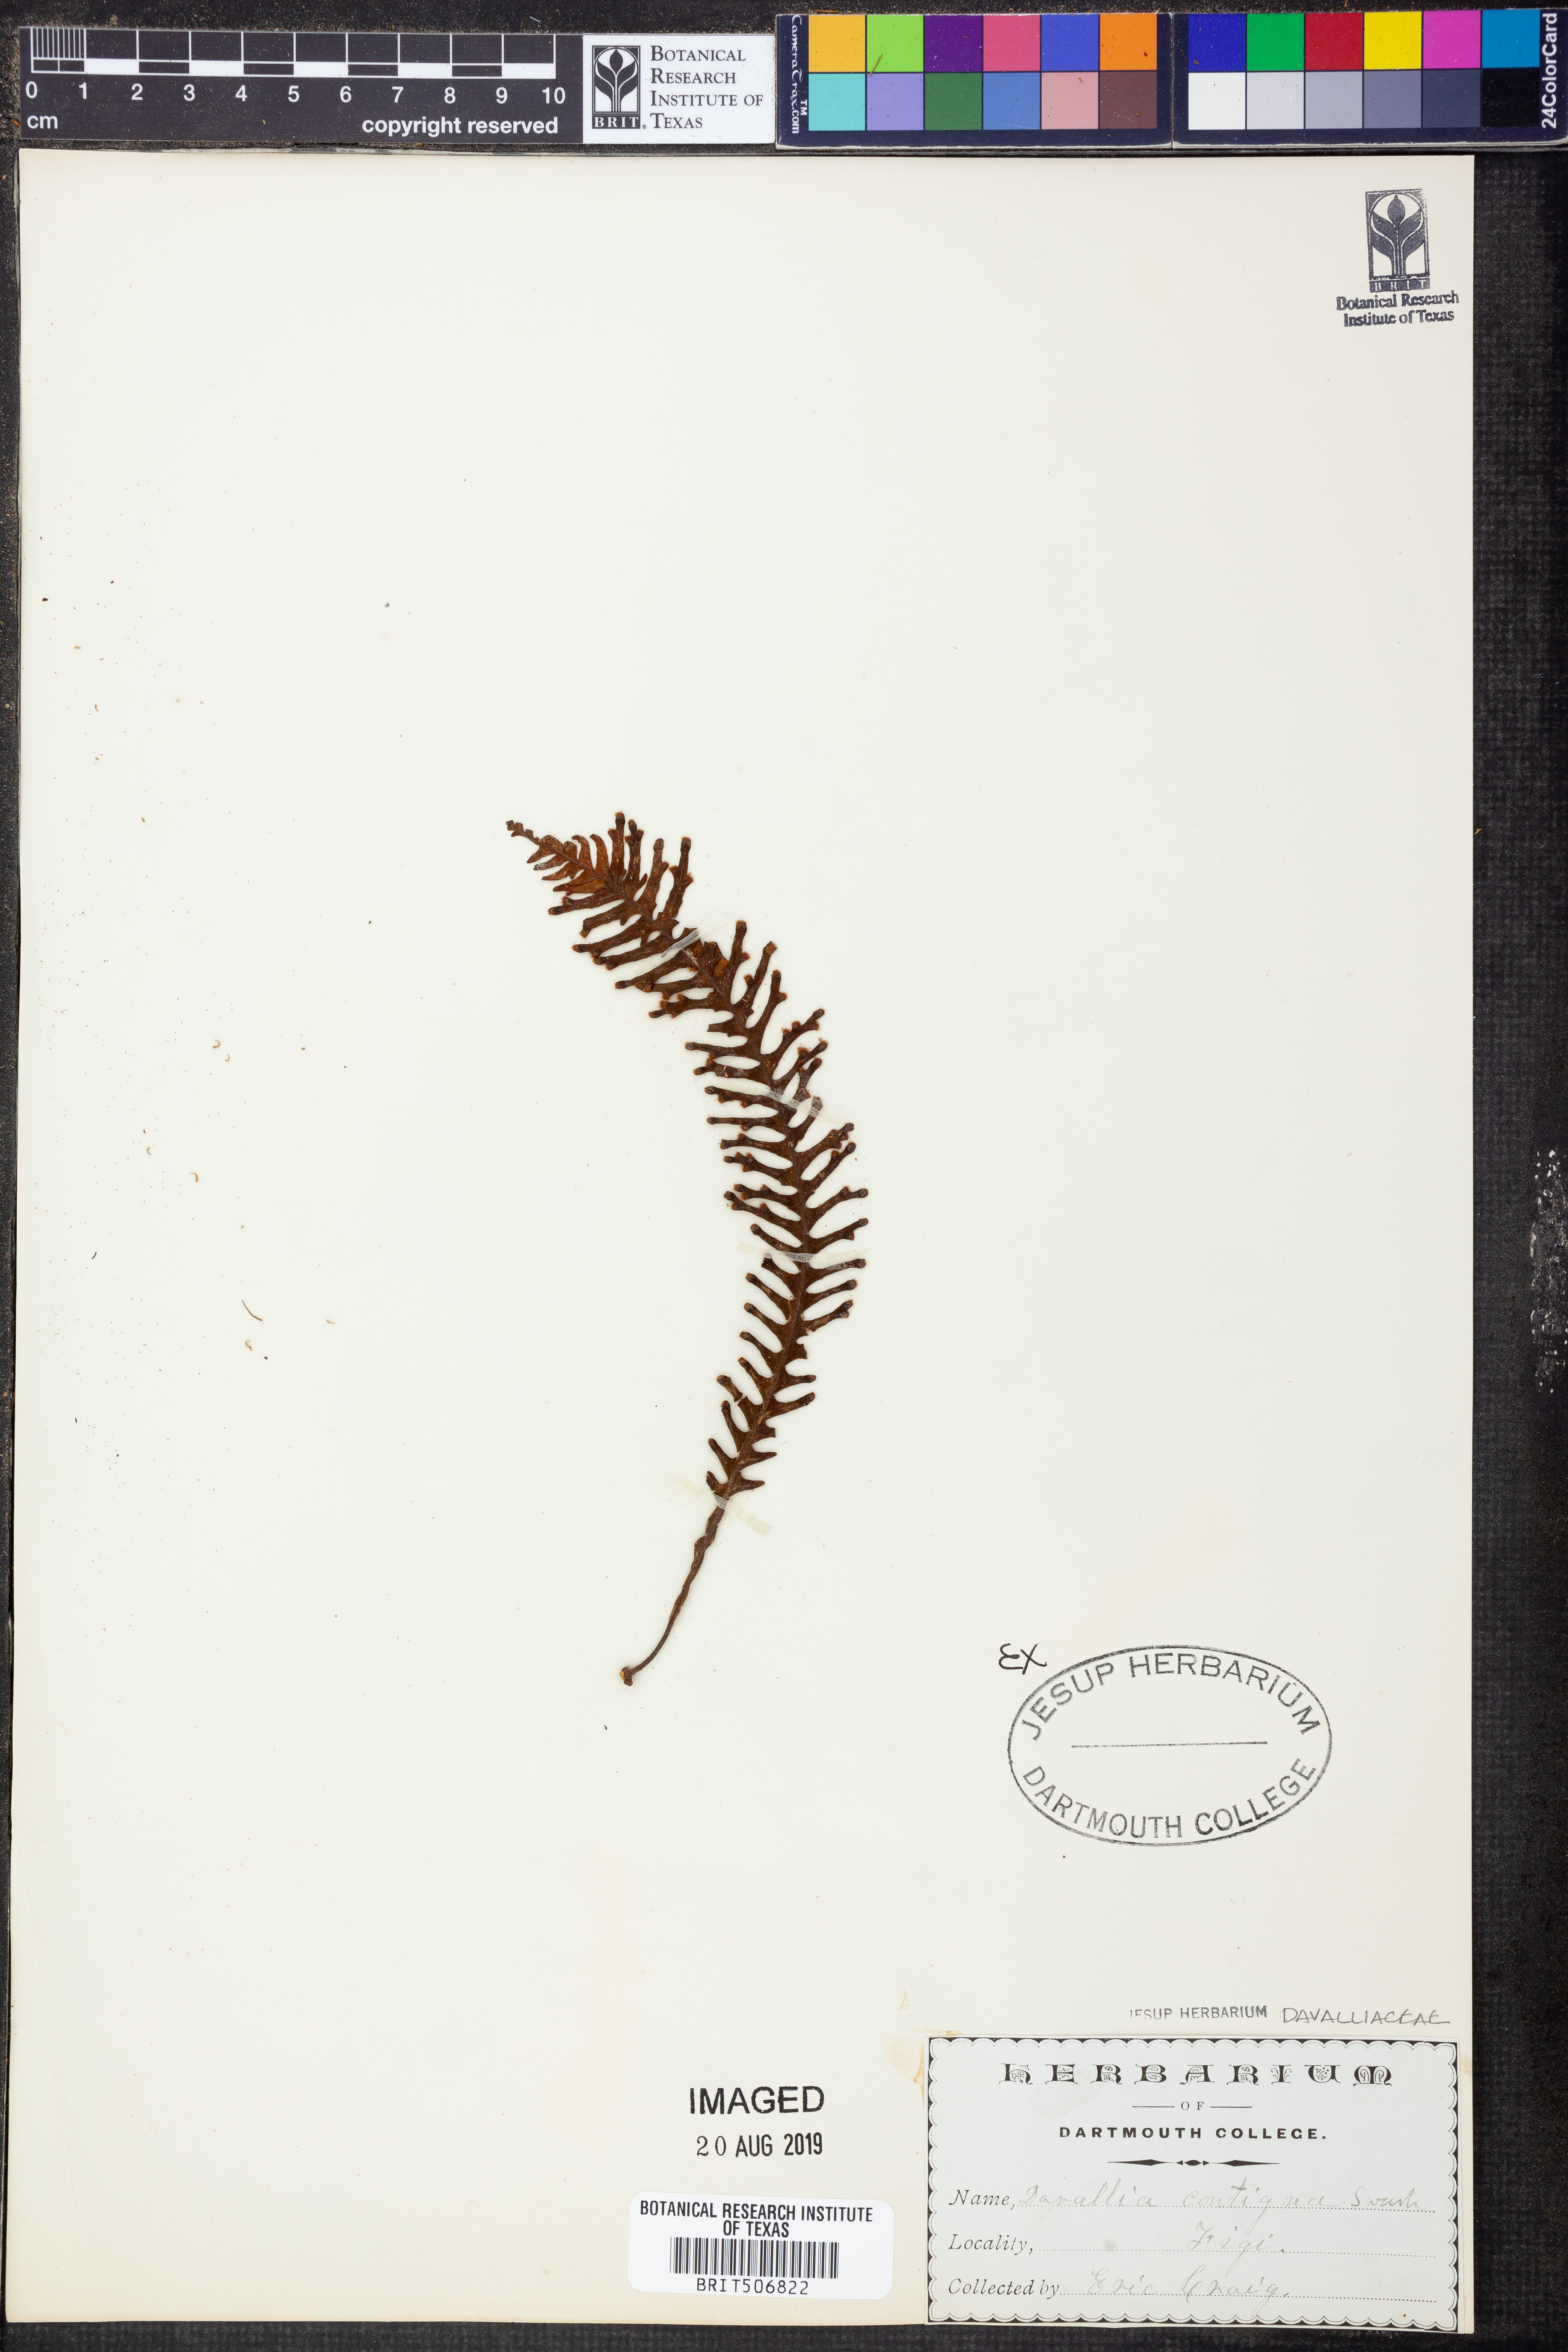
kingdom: Plantae
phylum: Tracheophyta
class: Polypodiopsida
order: Polypodiales
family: Polypodiaceae
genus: Prosaptia
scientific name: Prosaptia contigua
